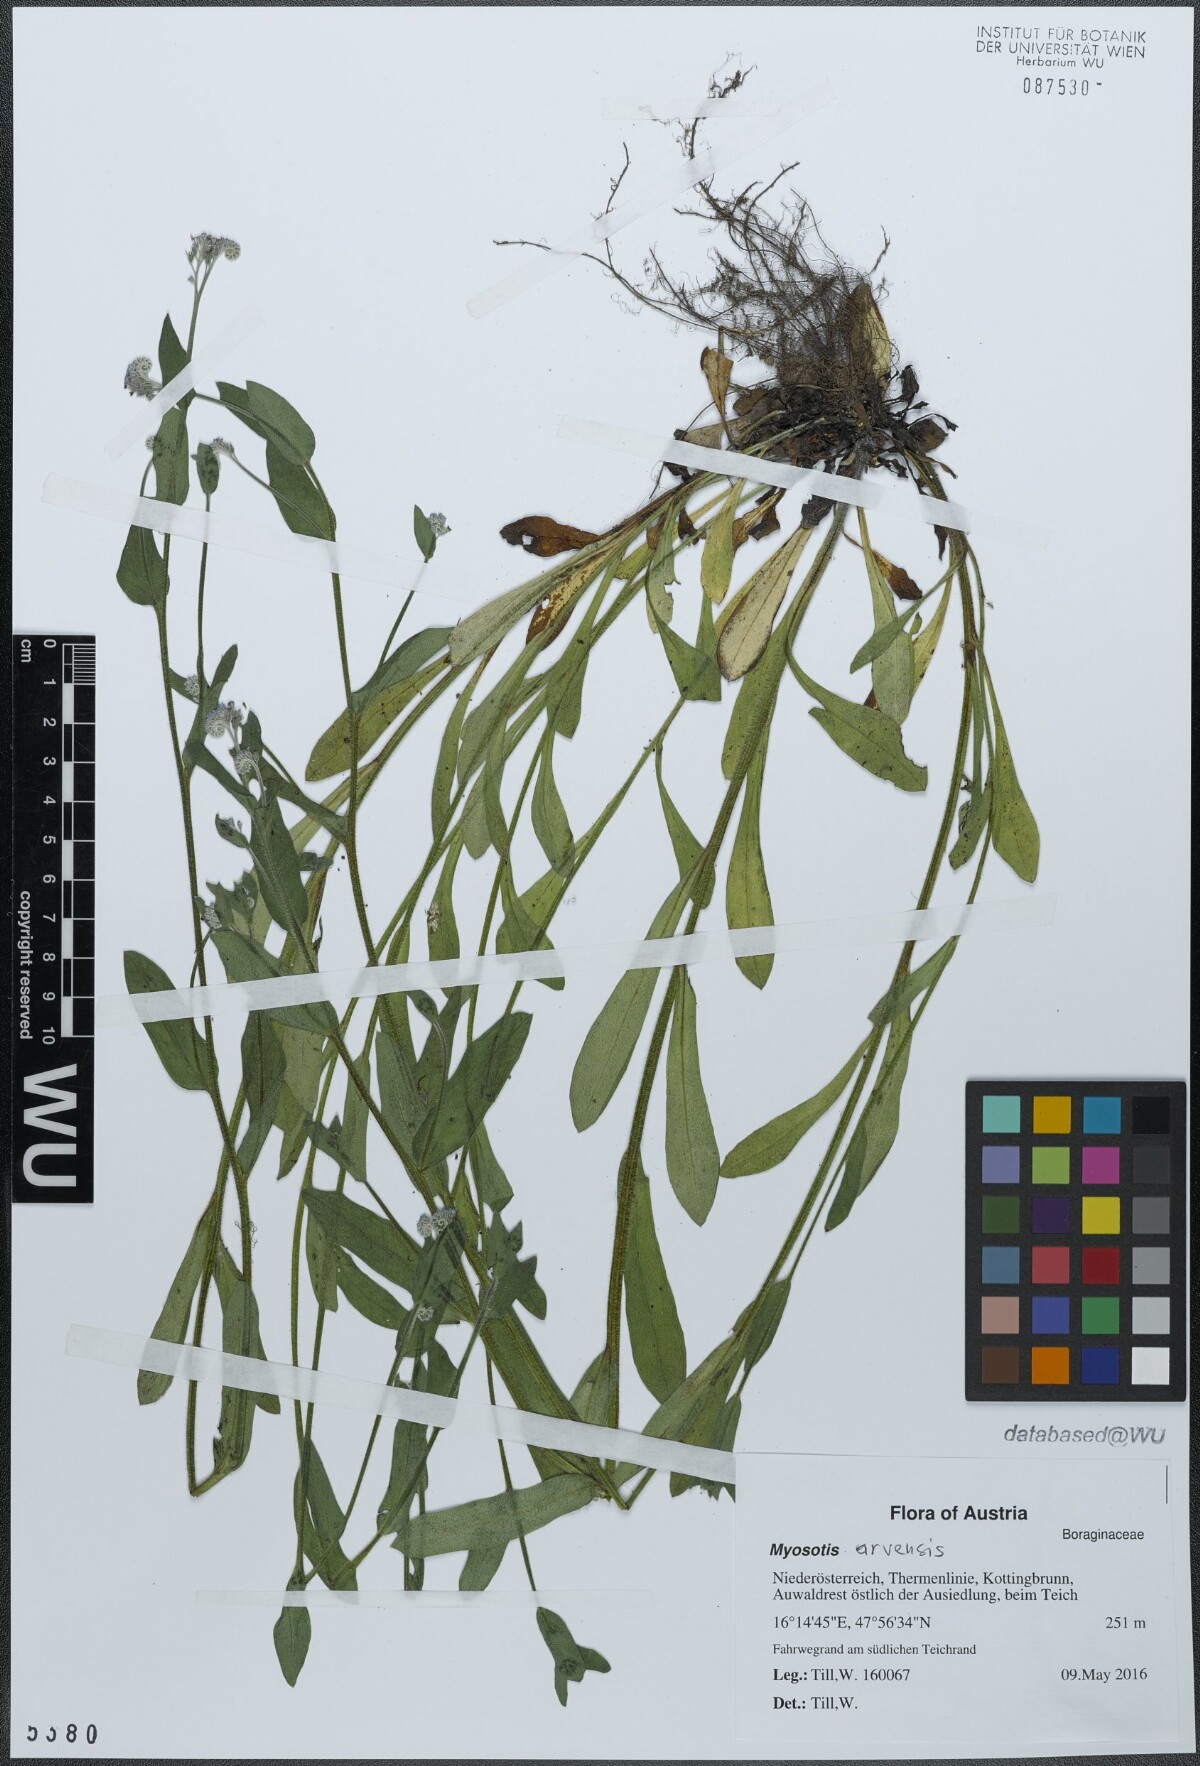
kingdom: Plantae
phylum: Tracheophyta
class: Magnoliopsida
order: Boraginales
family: Boraginaceae
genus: Myosotis
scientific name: Myosotis arvensis
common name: Field forget-me-not
